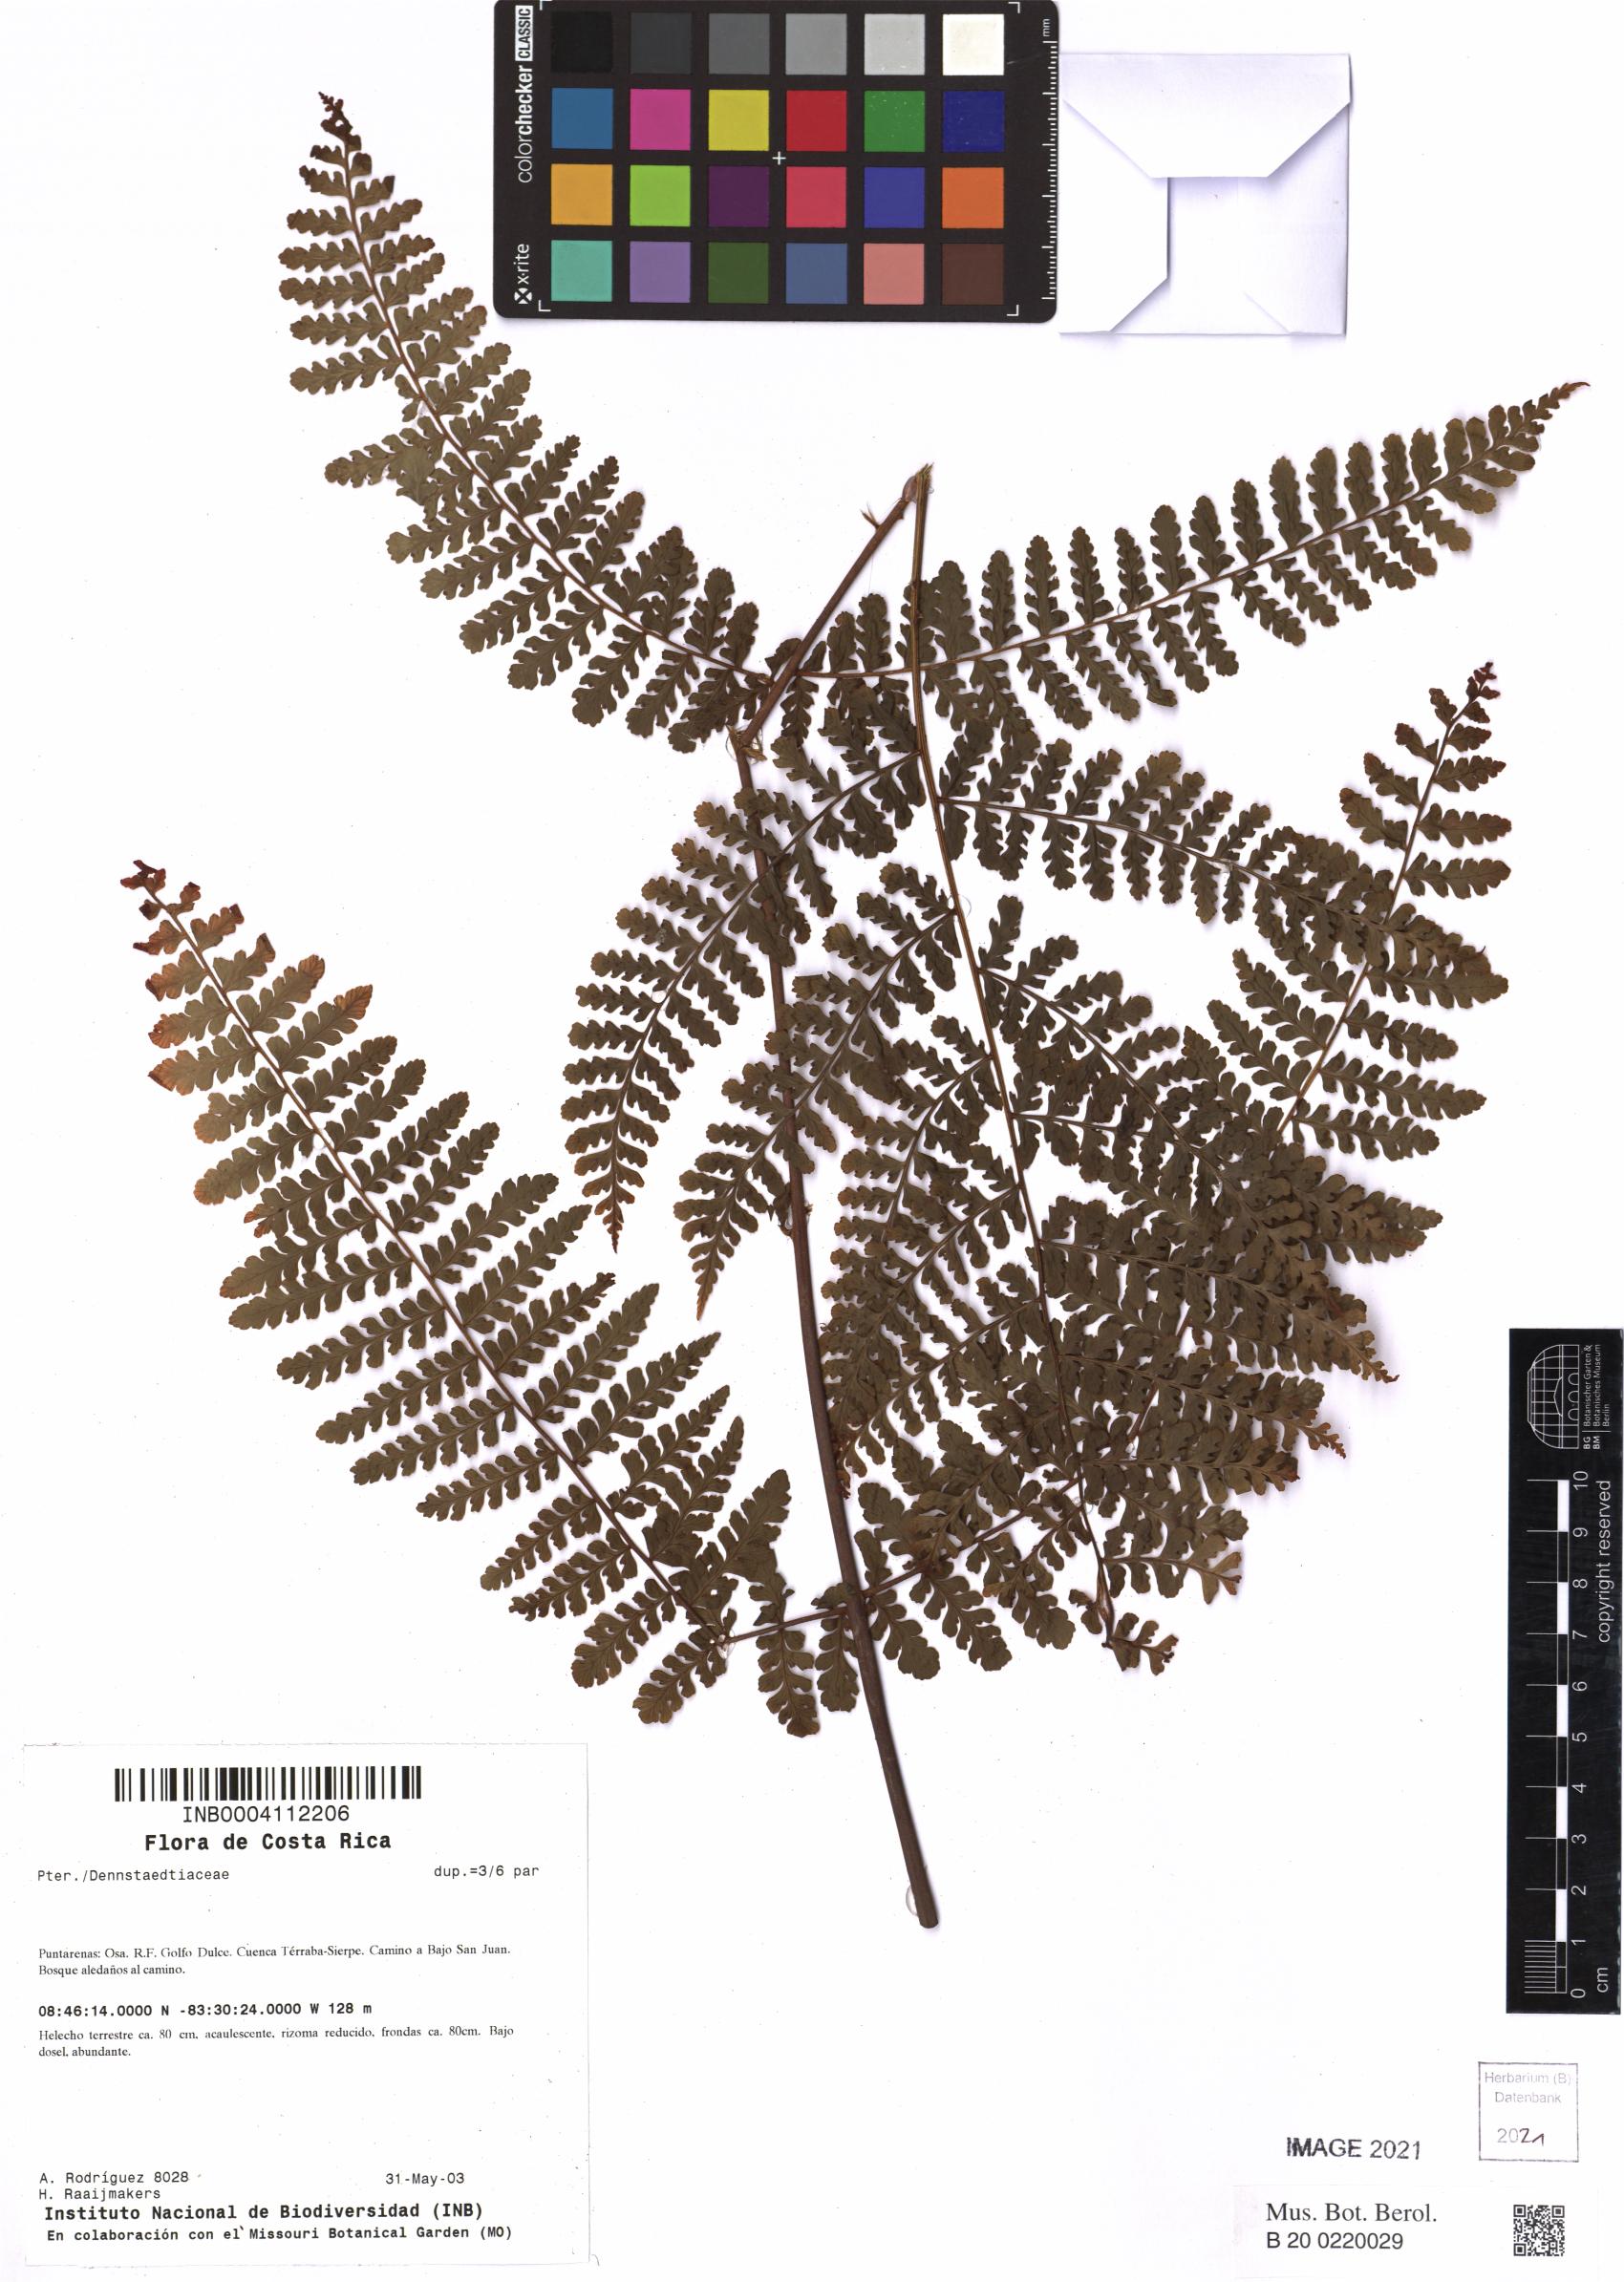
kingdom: Plantae
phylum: Tracheophyta
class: Polypodiopsida
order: Polypodiales
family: Dennstaedtiaceae
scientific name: Dennstaedtiaceae
